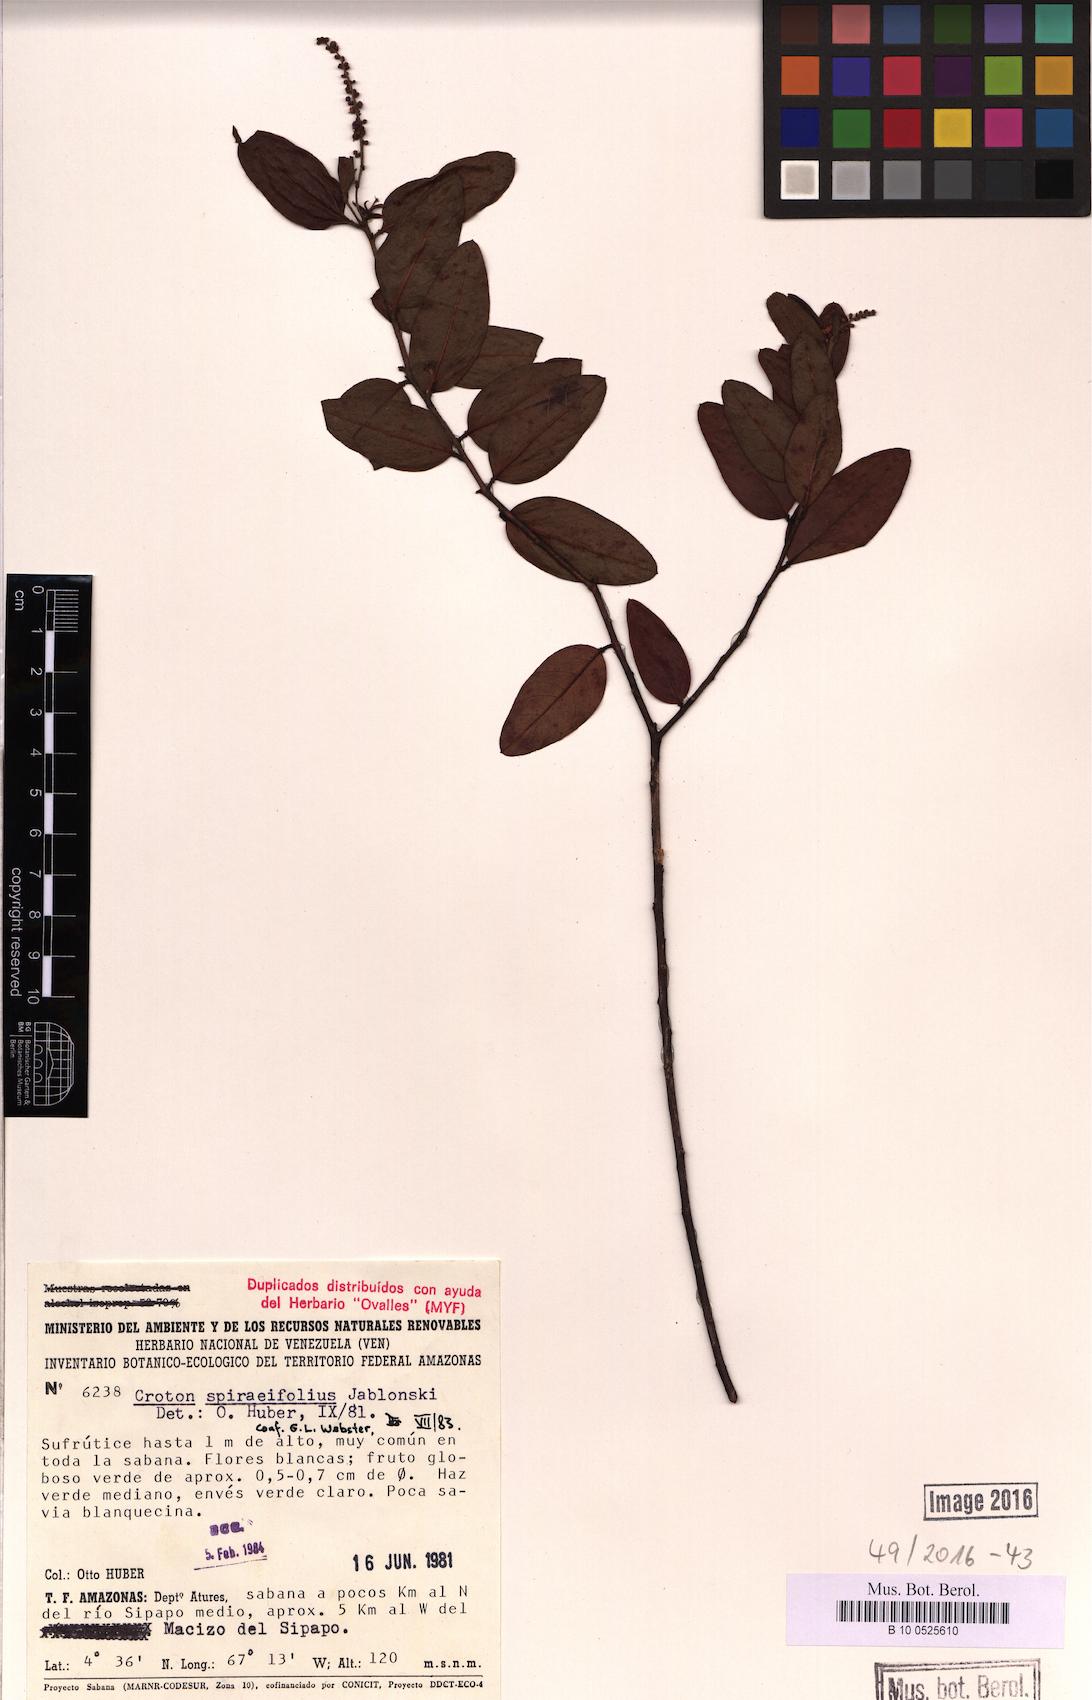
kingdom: Plantae
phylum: Tracheophyta
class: Magnoliopsida
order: Malpighiales
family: Euphorbiaceae
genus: Croton
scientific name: Croton
